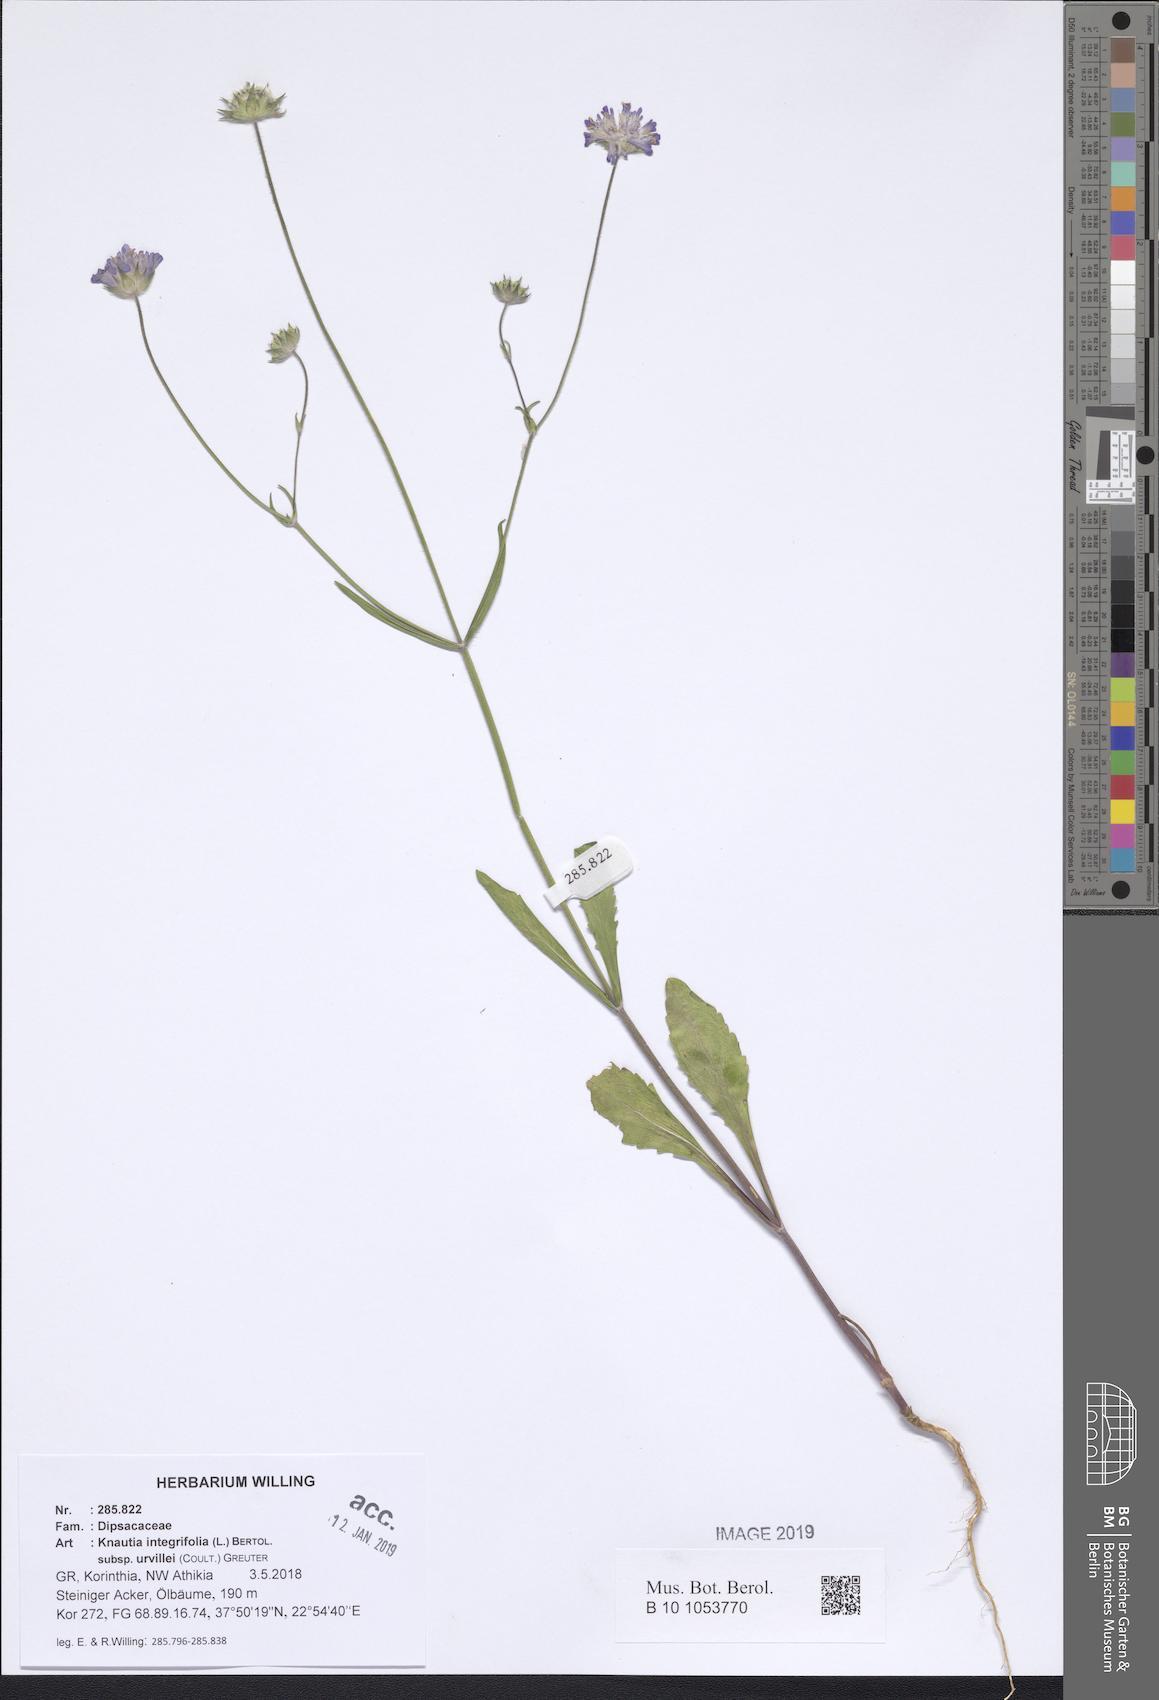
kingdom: Plantae
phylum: Tracheophyta
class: Magnoliopsida
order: Dipsacales
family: Caprifoliaceae
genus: Knautia
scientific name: Knautia integrifolia
